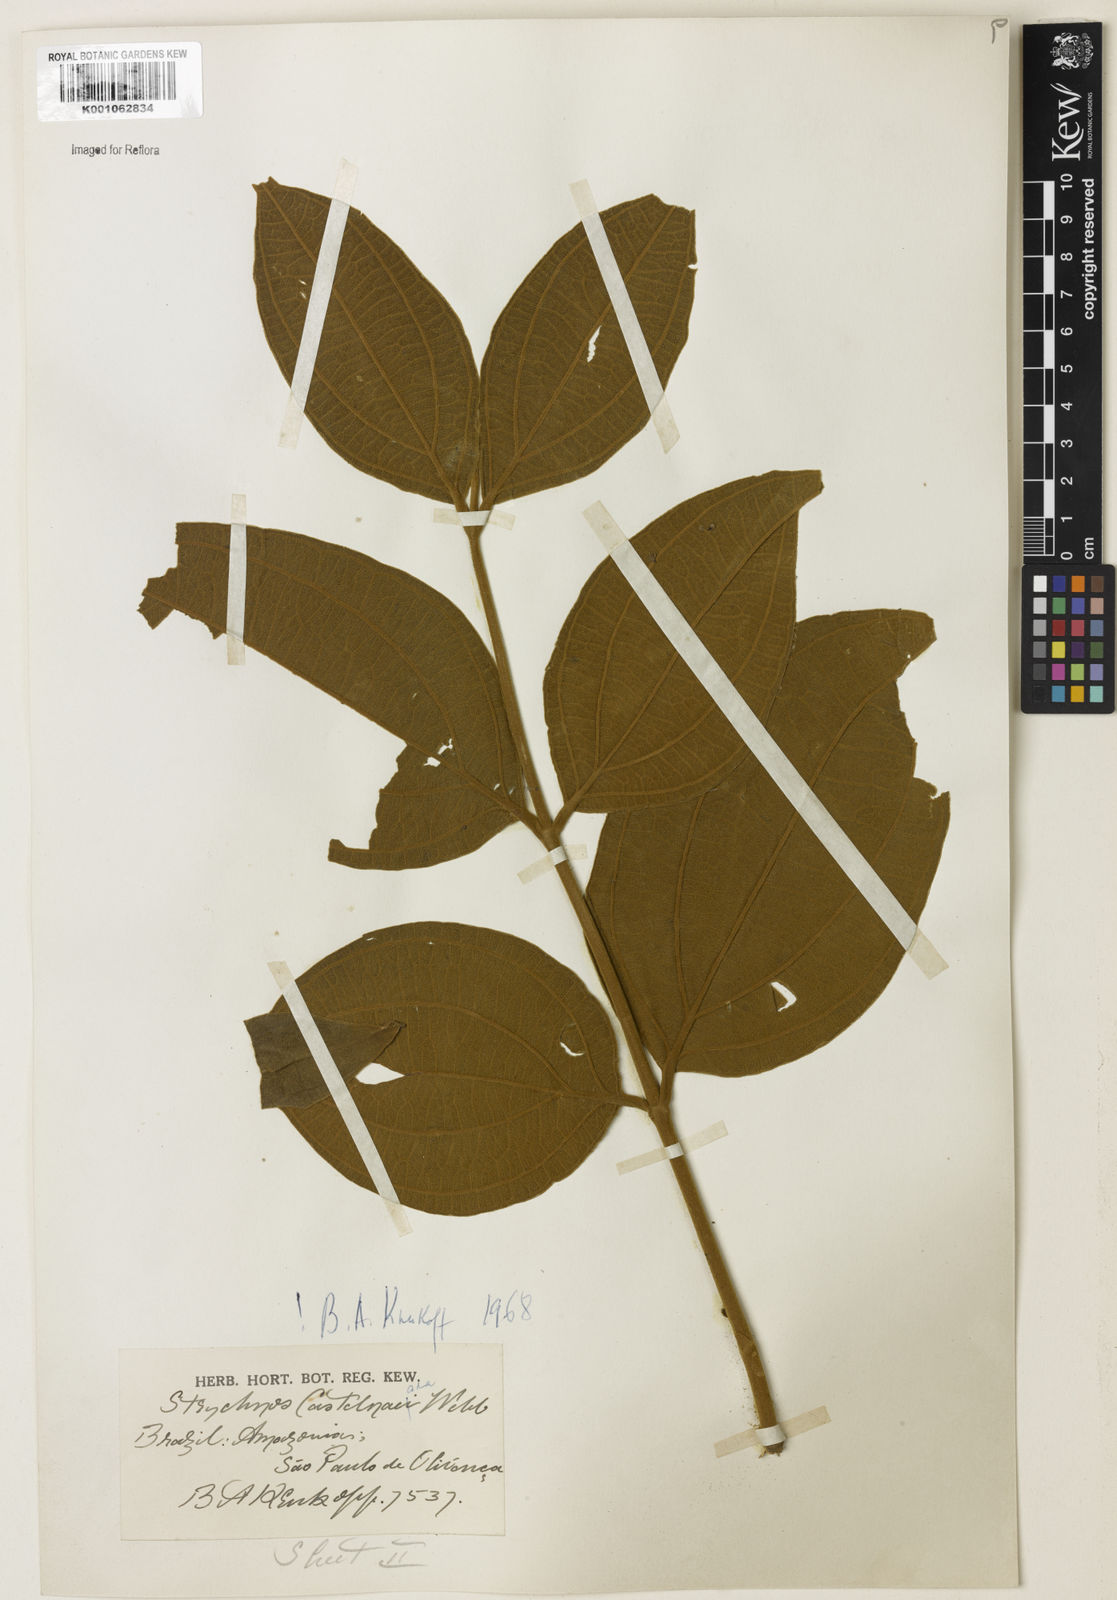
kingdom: Plantae
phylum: Tracheophyta
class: Magnoliopsida
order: Gentianales
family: Loganiaceae
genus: Strychnos
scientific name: Strychnos
